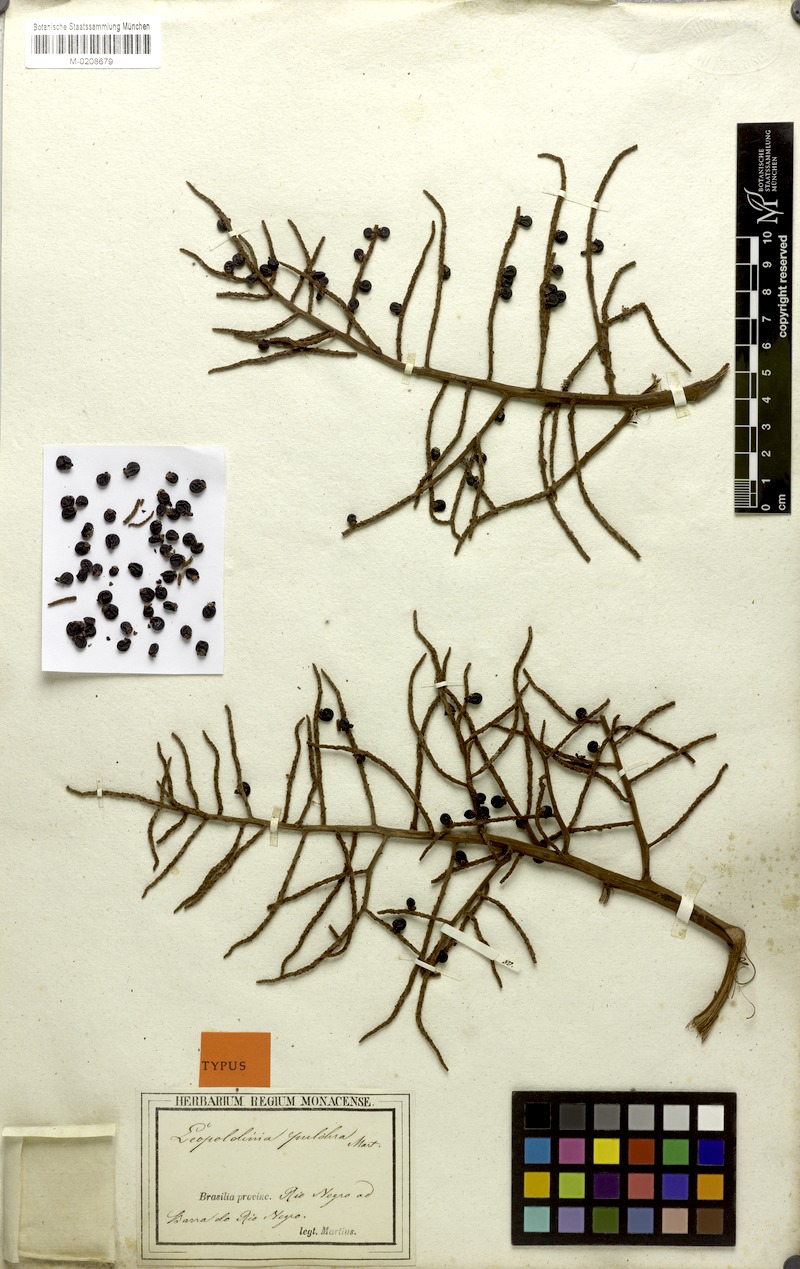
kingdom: Plantae
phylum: Tracheophyta
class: Liliopsida
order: Arecales
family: Arecaceae
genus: Leopoldinia
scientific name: Leopoldinia pulchra
